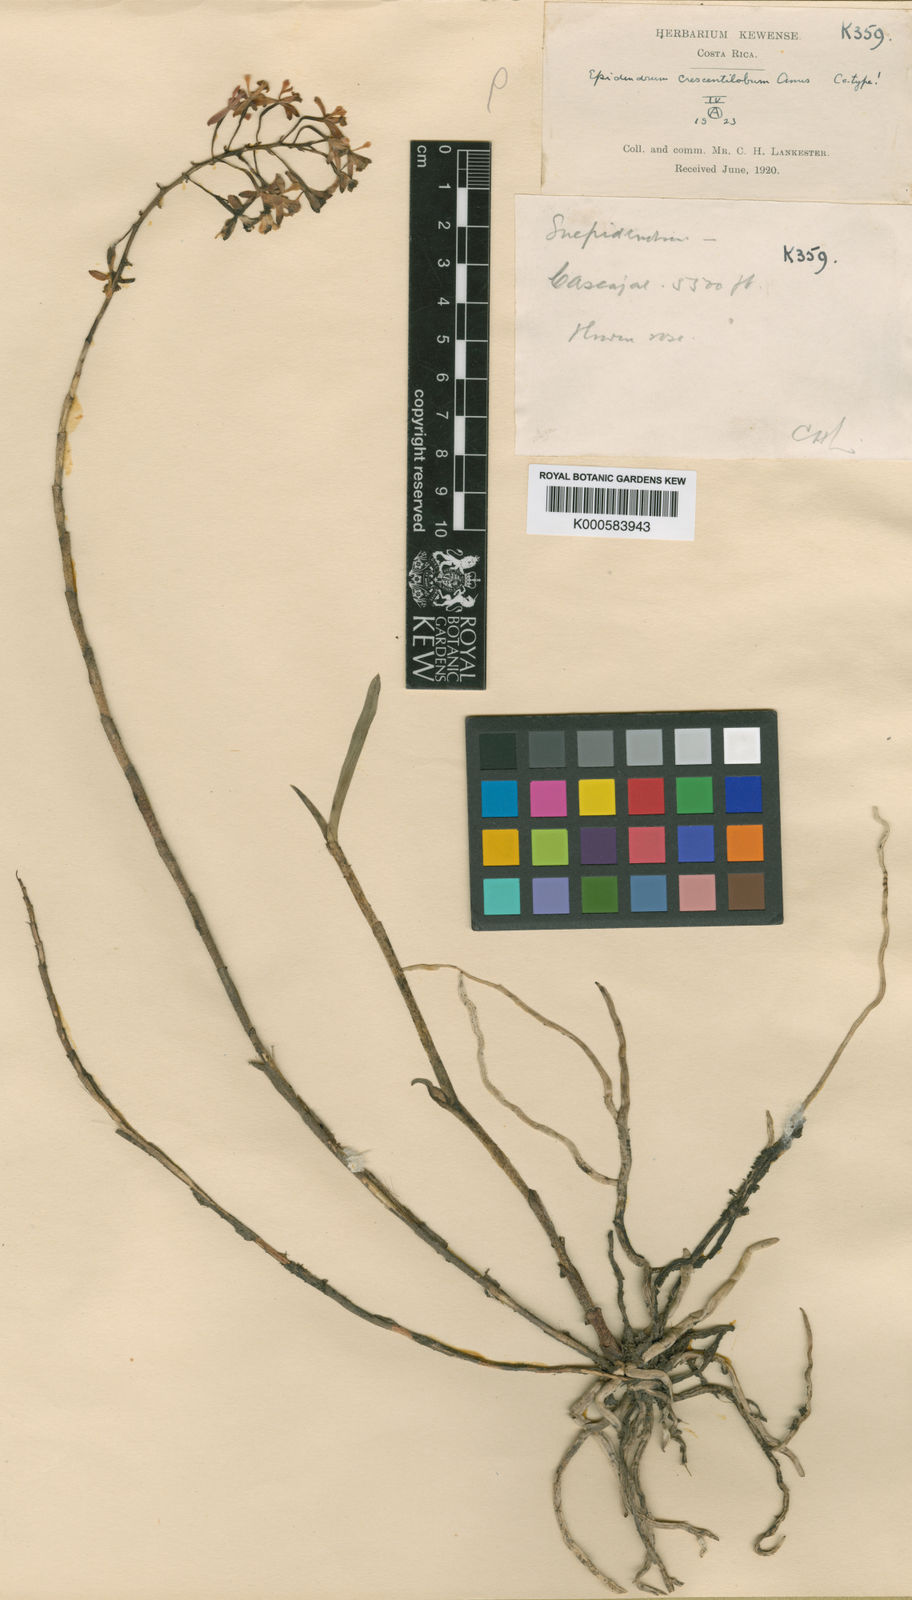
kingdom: Plantae
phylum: Tracheophyta
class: Liliopsida
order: Asparagales
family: Orchidaceae
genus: Epidendrum
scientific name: Epidendrum
